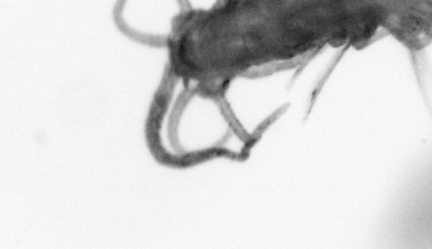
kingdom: Animalia
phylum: Annelida
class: Polychaeta
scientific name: Polychaeta
